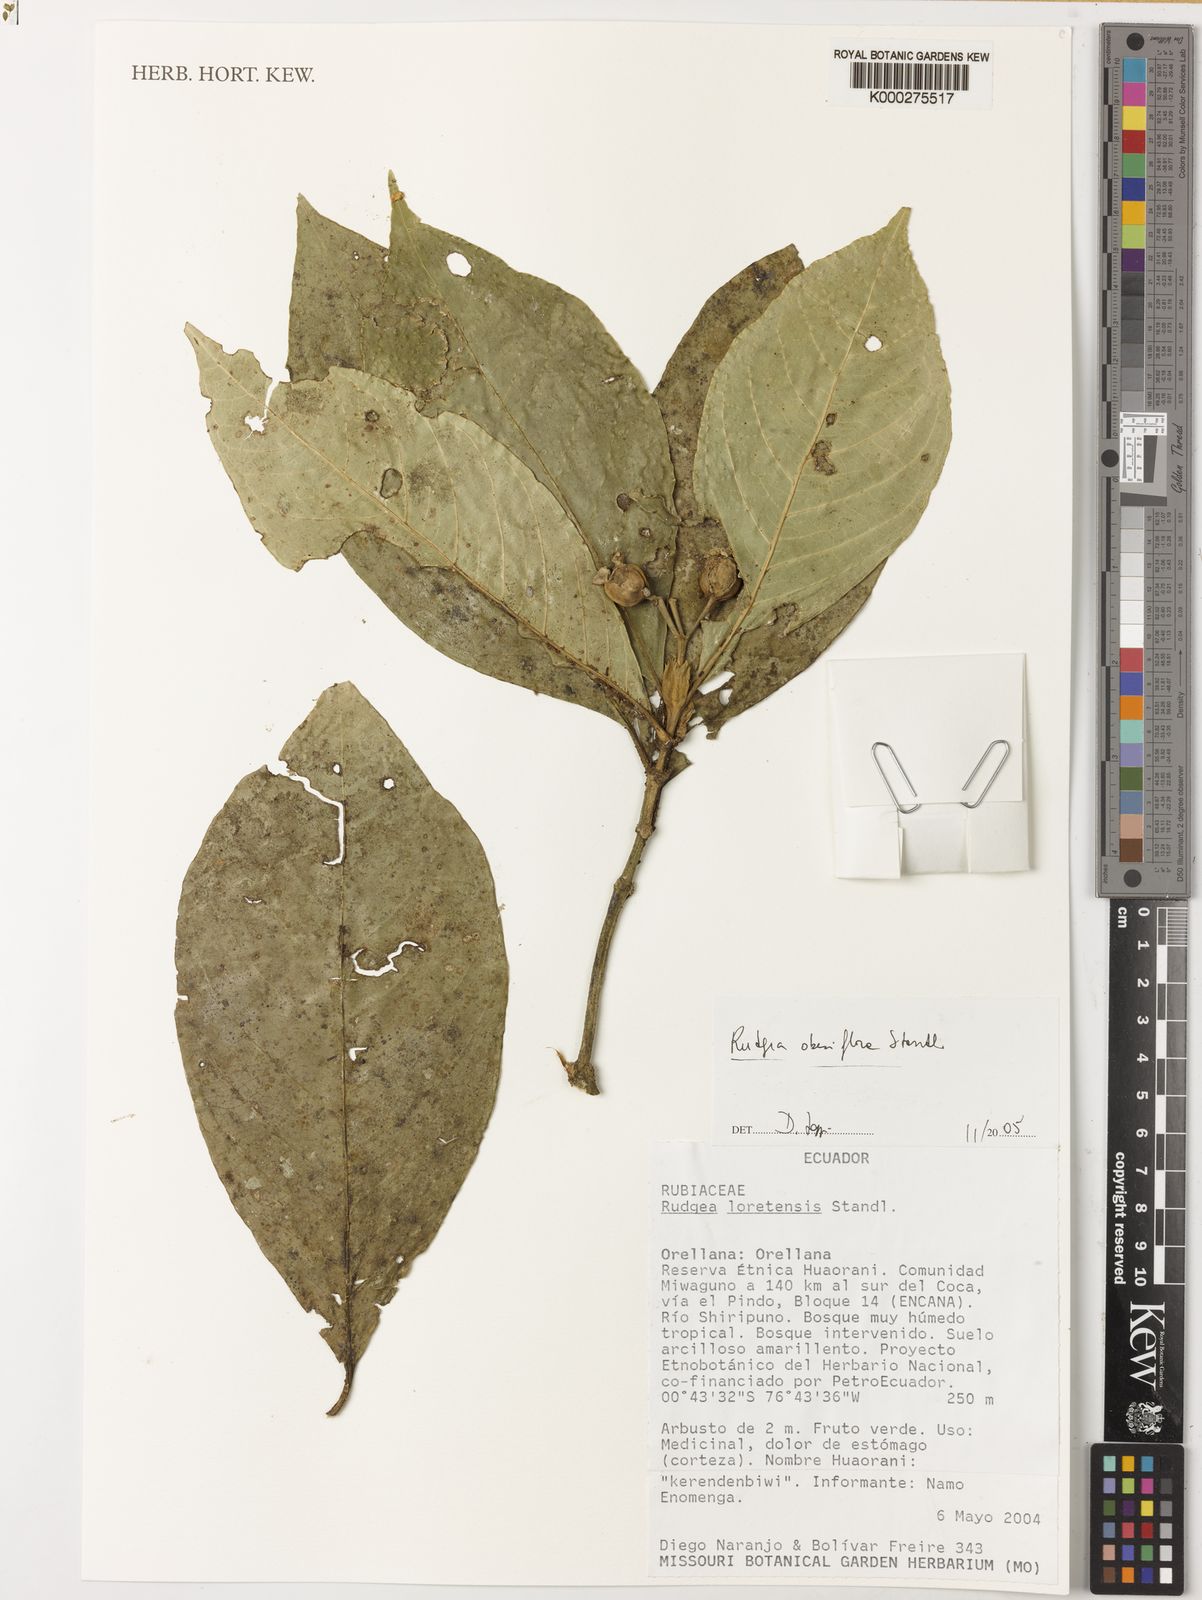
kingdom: Plantae
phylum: Tracheophyta
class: Magnoliopsida
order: Gentianales
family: Rubiaceae
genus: Rudgea
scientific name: Rudgea obesiflora
